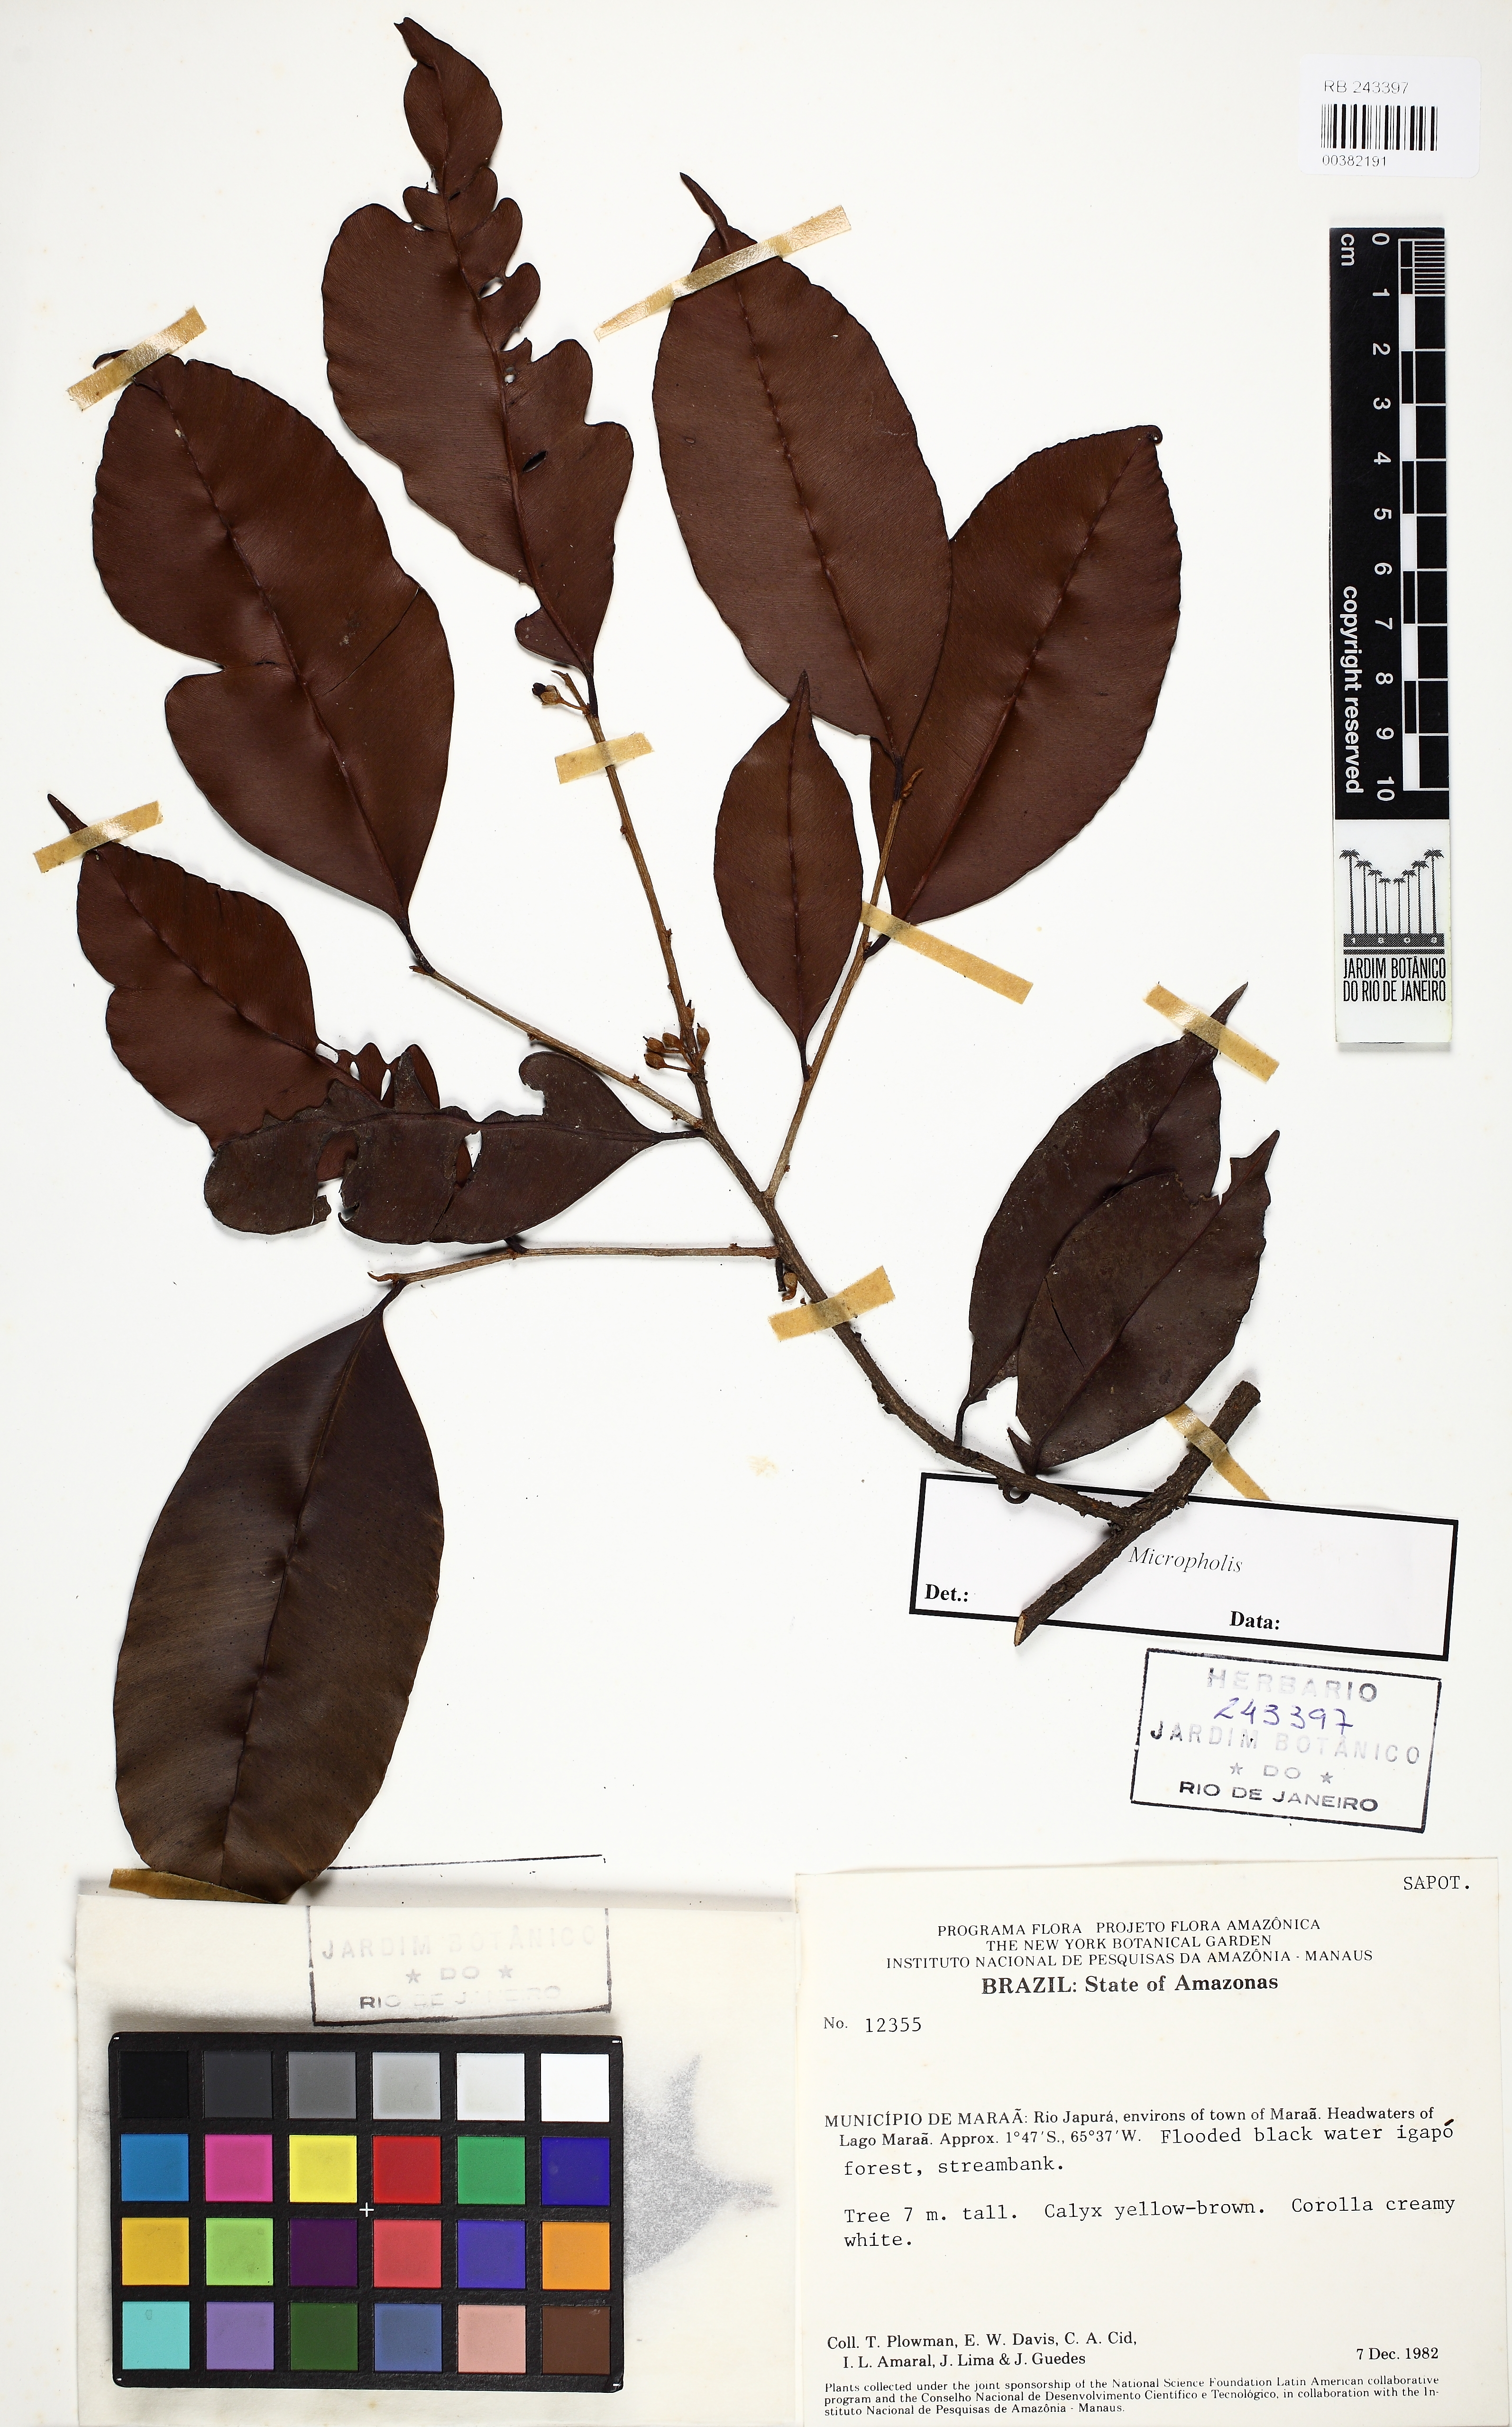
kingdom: Plantae
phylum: Tracheophyta
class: Magnoliopsida
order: Ericales
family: Sapotaceae
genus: Micropholis
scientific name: Micropholis
